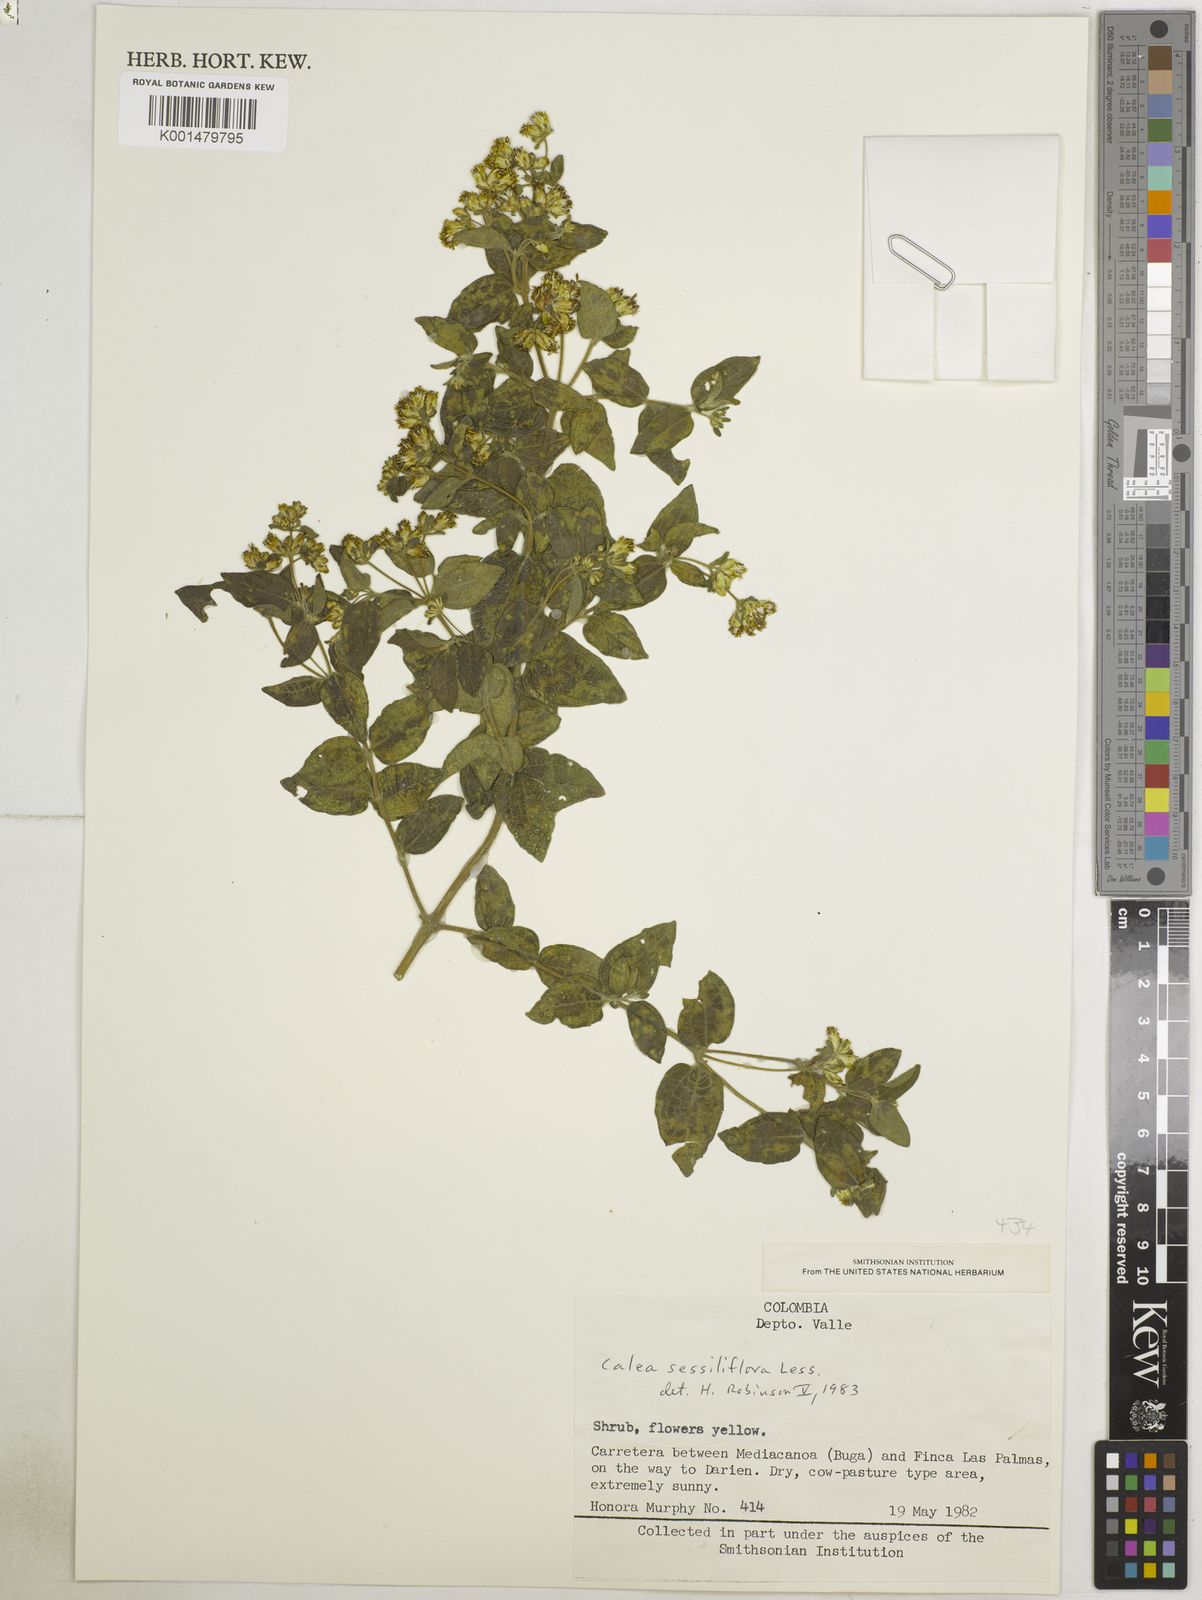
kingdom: Plantae
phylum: Tracheophyta
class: Magnoliopsida
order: Asterales
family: Asteraceae
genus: Calea
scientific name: Calea sessiliflora
